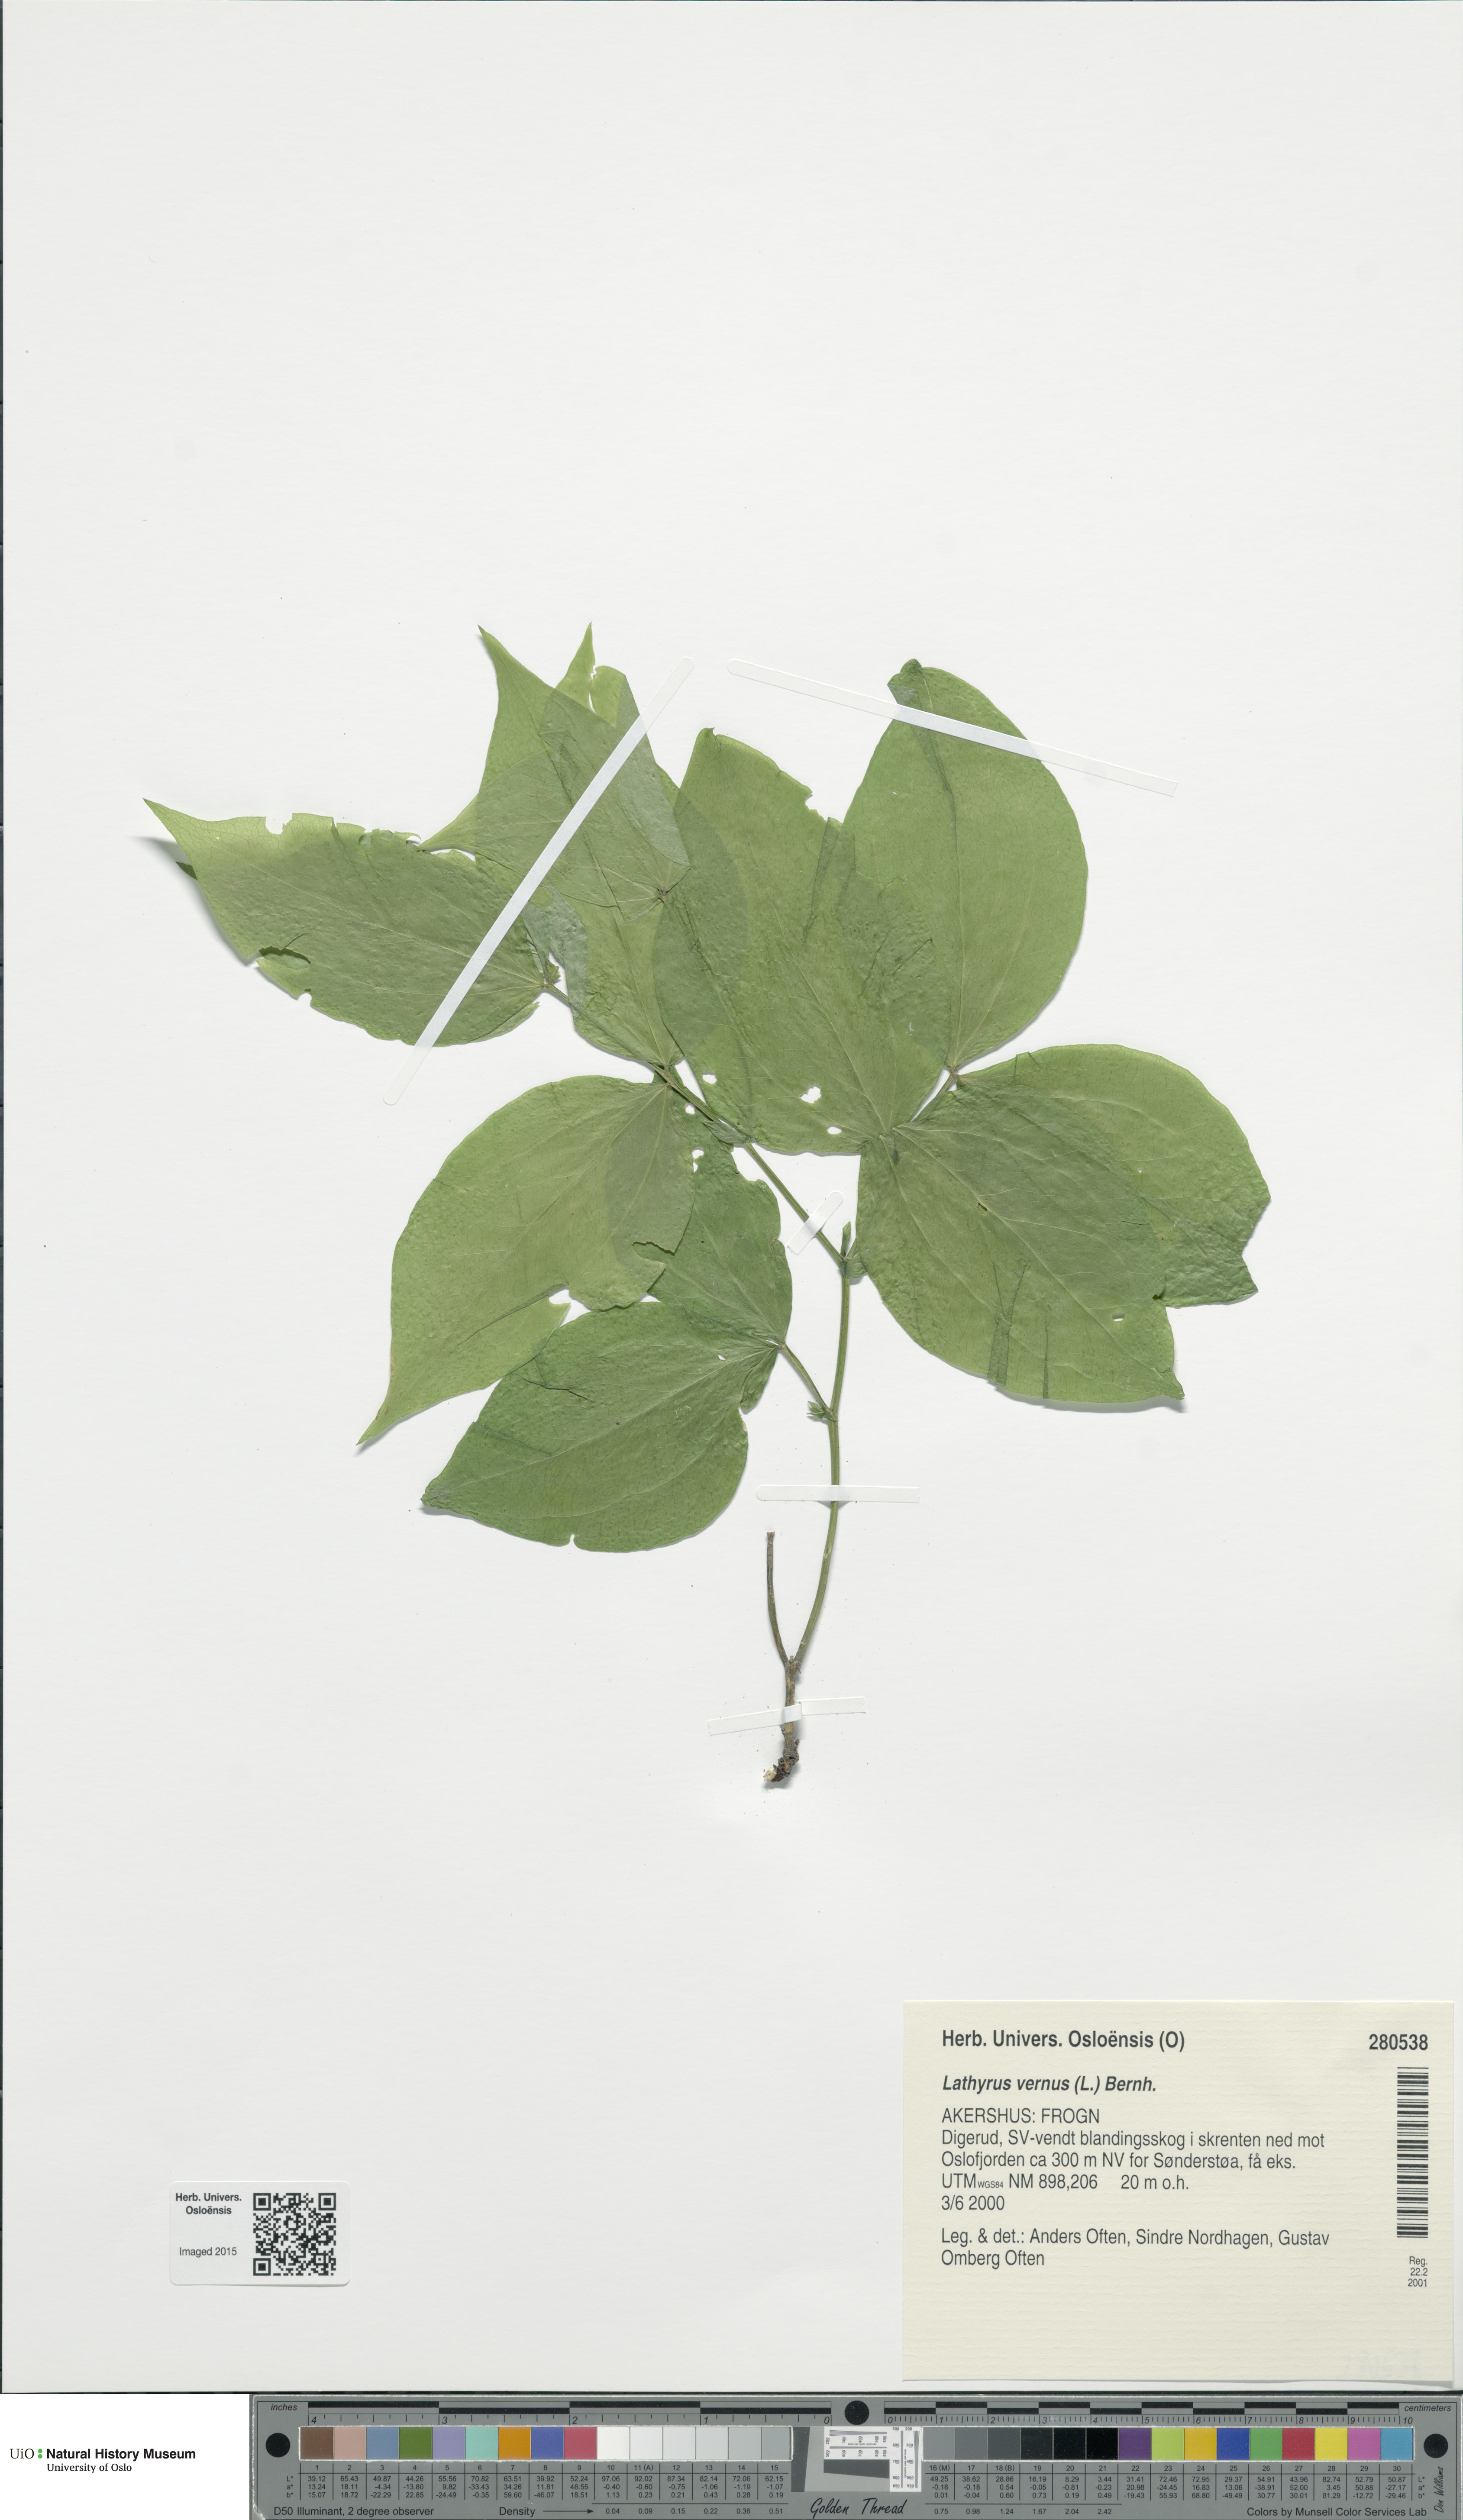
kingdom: Plantae
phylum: Tracheophyta
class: Magnoliopsida
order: Fabales
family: Fabaceae
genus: Lathyrus
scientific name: Lathyrus vernus
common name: Spring pea
